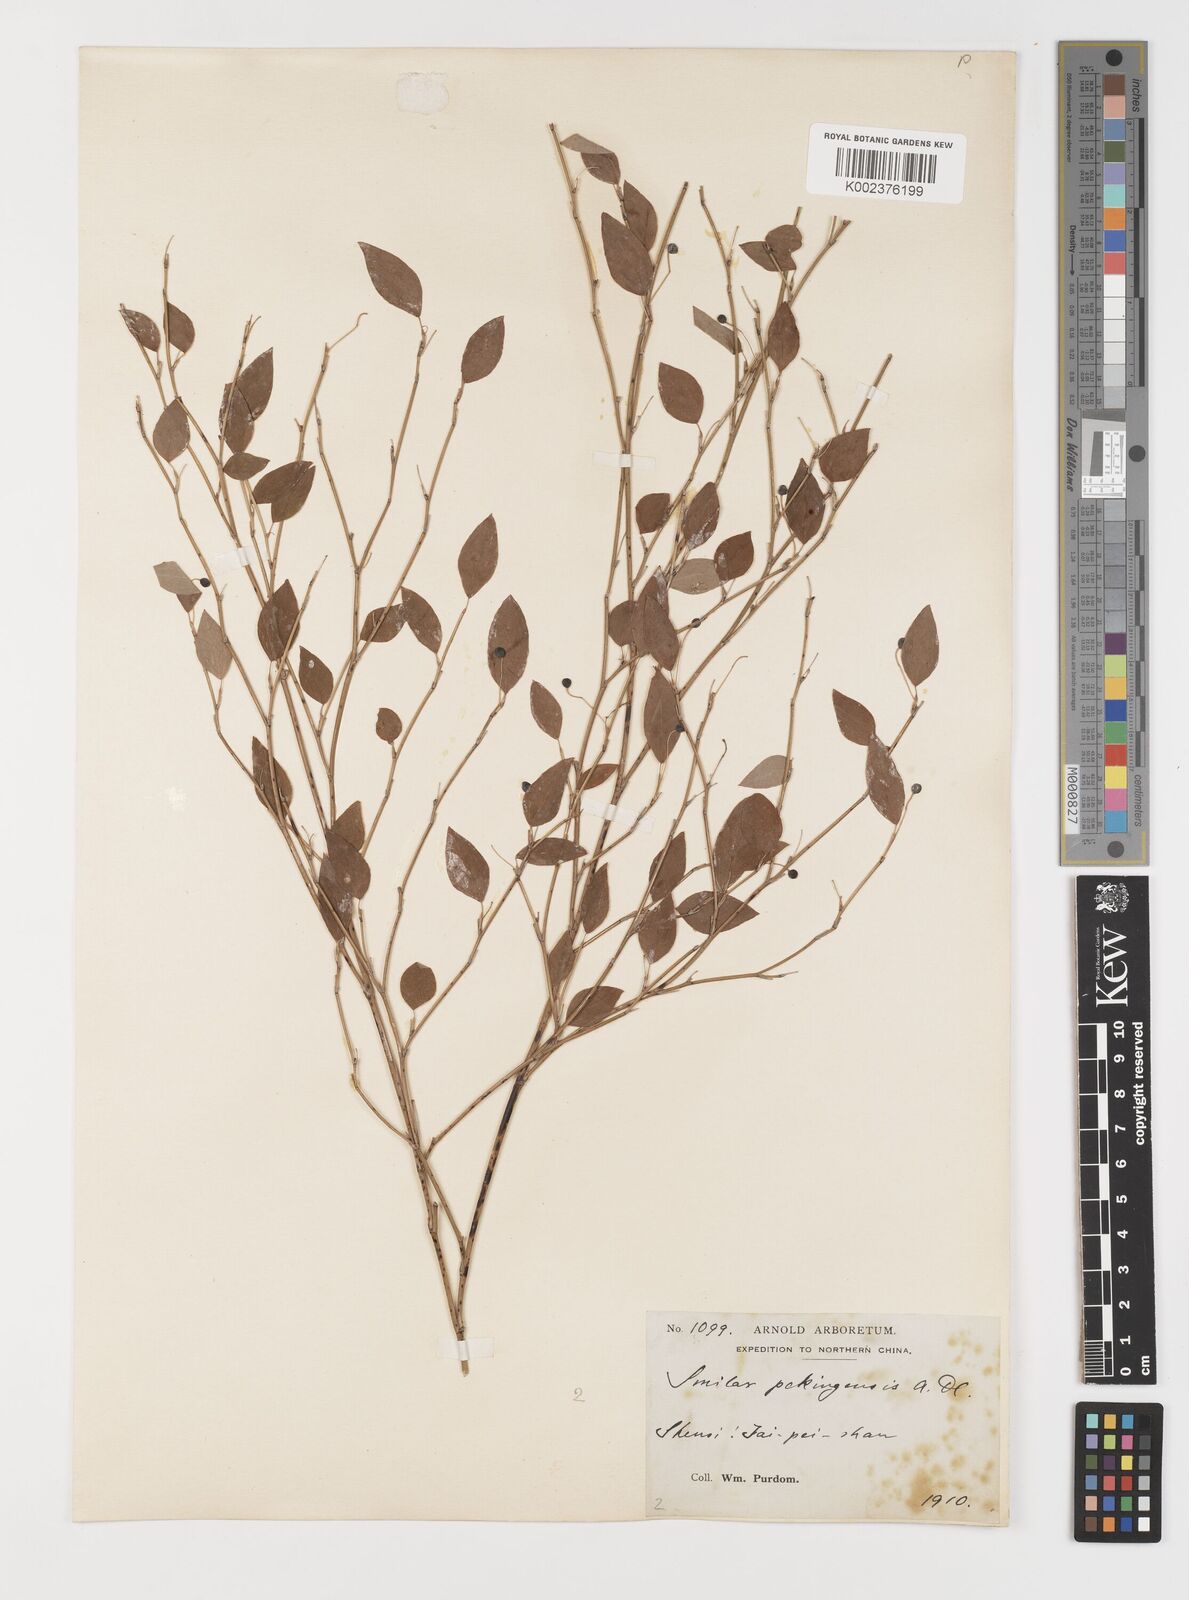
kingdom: Plantae
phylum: Tracheophyta
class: Liliopsida
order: Liliales
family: Smilacaceae
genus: Smilax
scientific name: Smilax neocyclophylla
